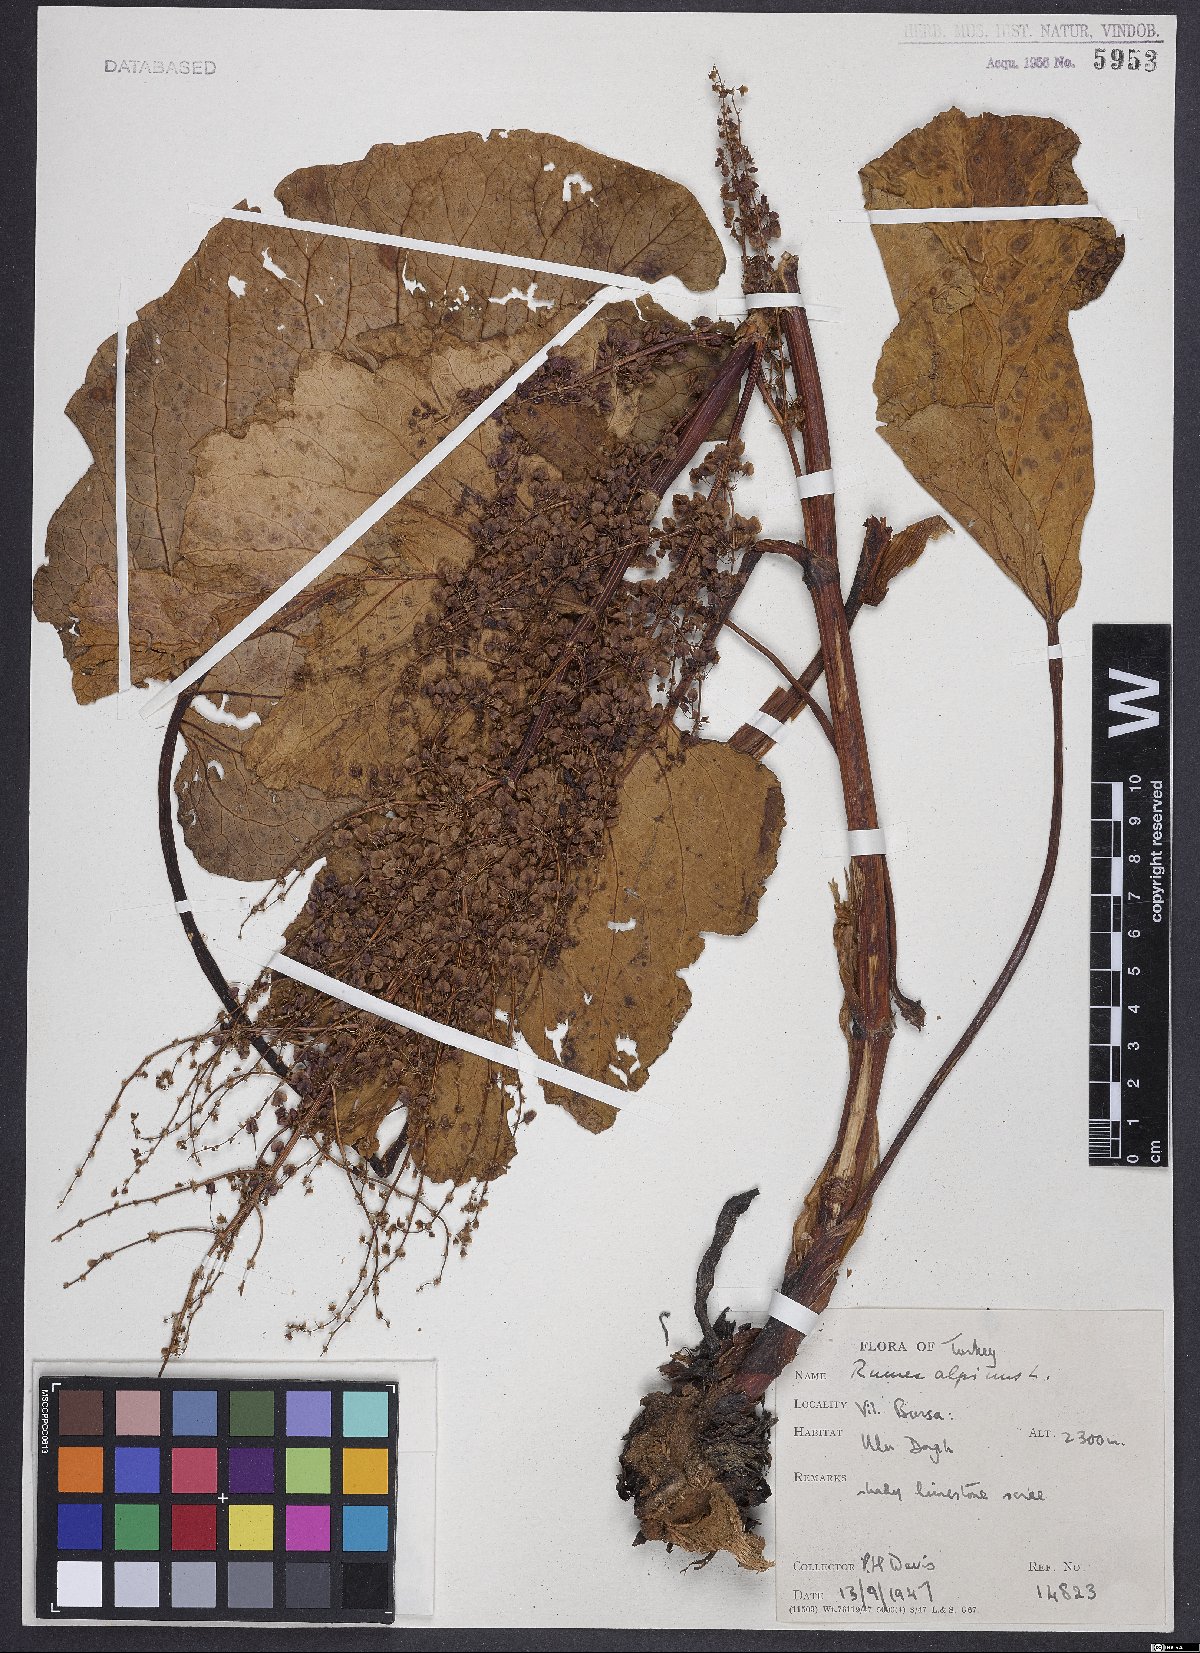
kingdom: Plantae
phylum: Tracheophyta
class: Magnoliopsida
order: Caryophyllales
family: Polygonaceae
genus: Rumex
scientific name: Rumex alpinus
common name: Alpine dock
